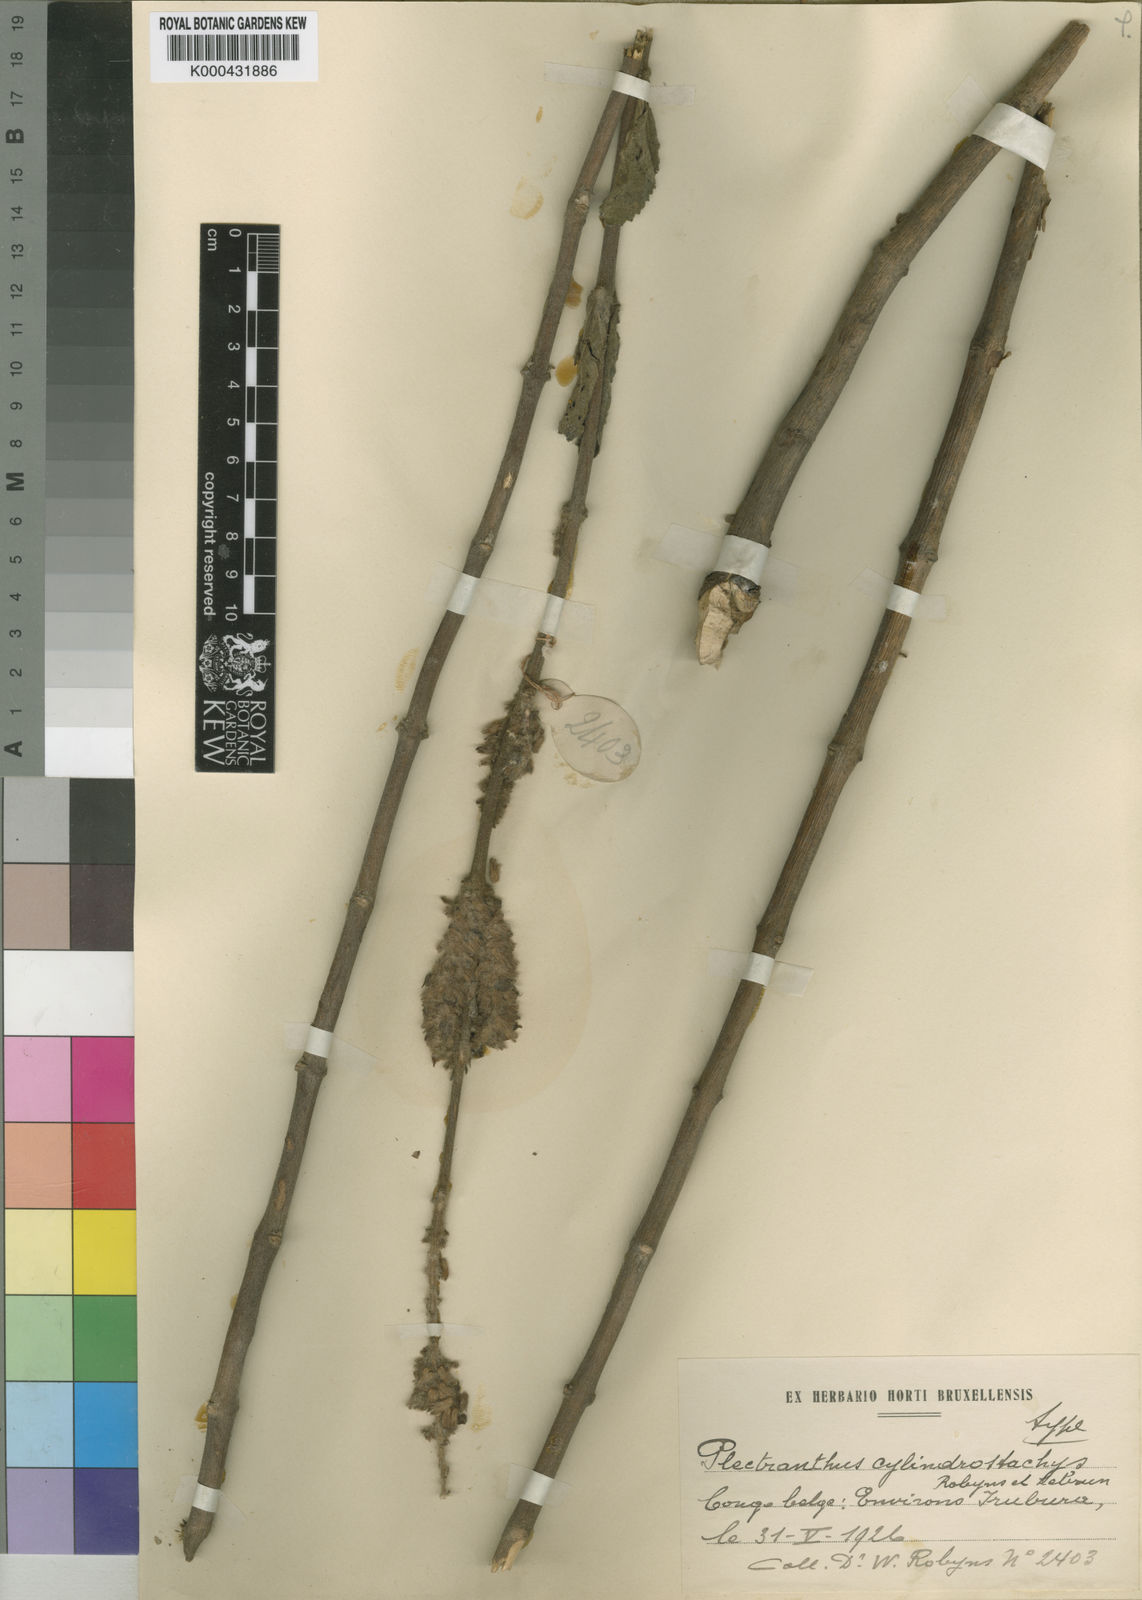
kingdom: Plantae
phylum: Tracheophyta
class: Magnoliopsida
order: Lamiales
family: Lamiaceae
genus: Coleus
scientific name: Coleus stachyoides
